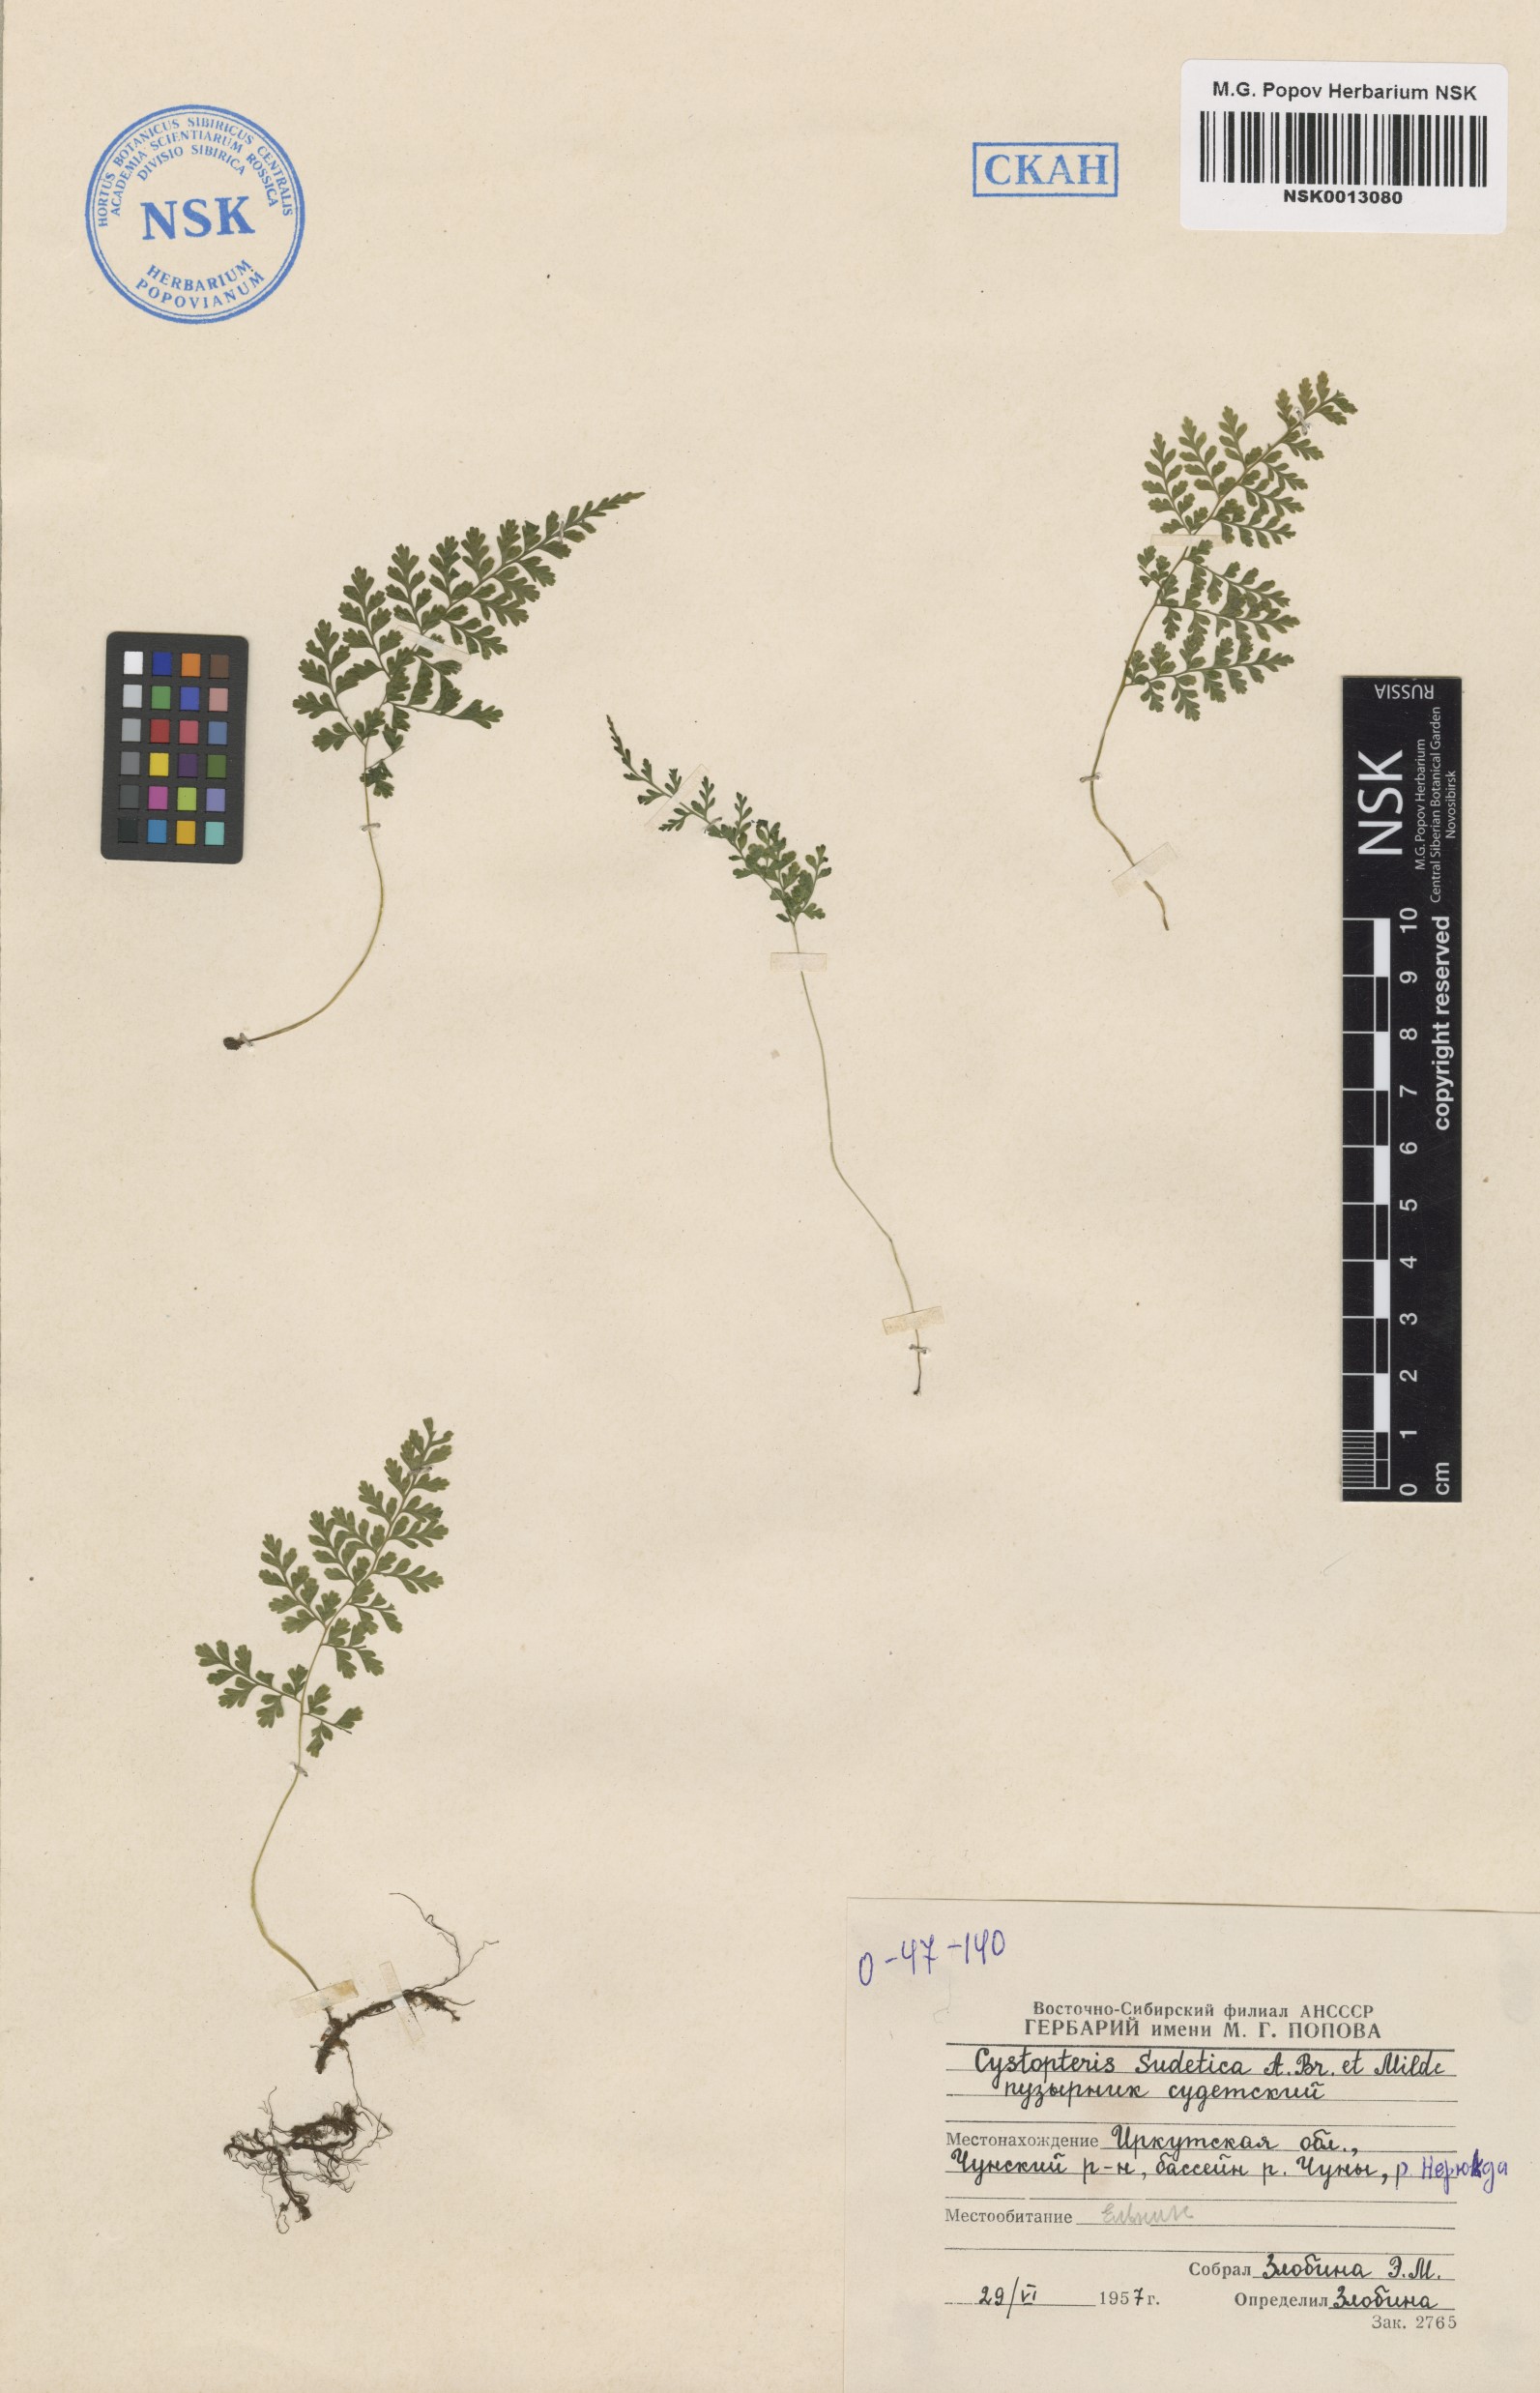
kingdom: Plantae
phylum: Tracheophyta
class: Polypodiopsida
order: Polypodiales
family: Cystopteridaceae
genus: Cystopteris
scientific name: Cystopteris sudetica
